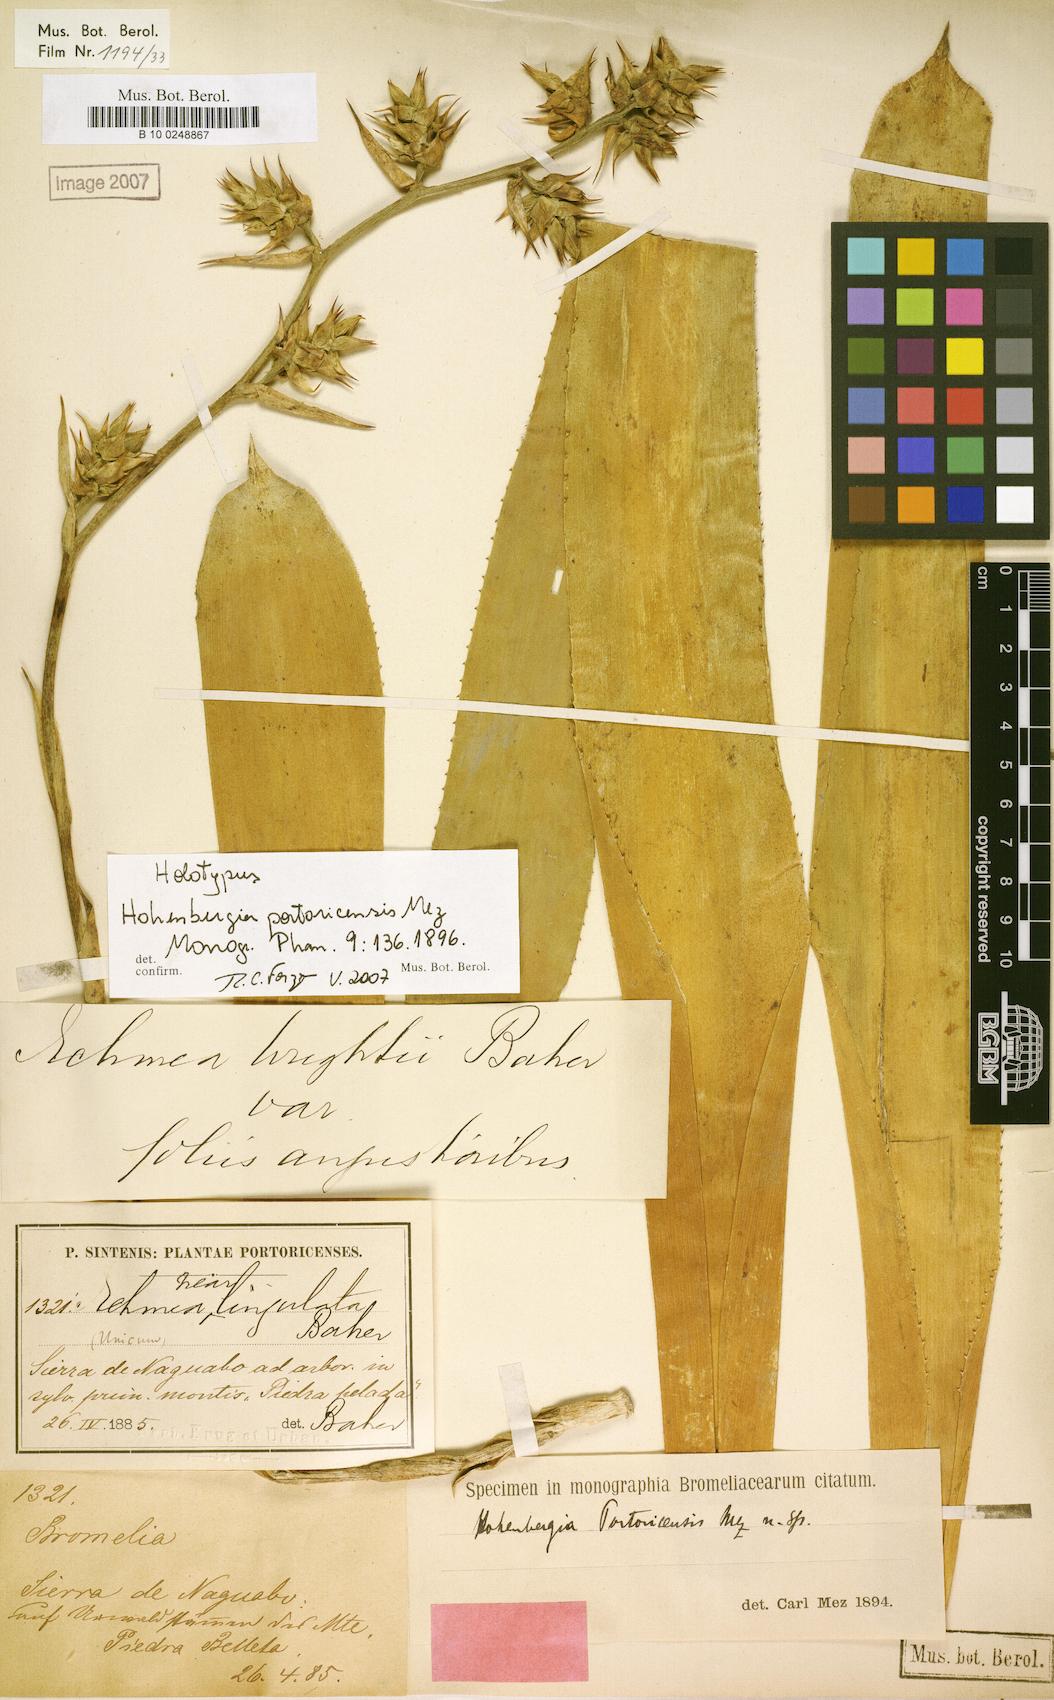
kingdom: Plantae
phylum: Tracheophyta
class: Liliopsida
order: Poales
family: Bromeliaceae
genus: Wittmackia
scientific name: Wittmackia portoricensis
